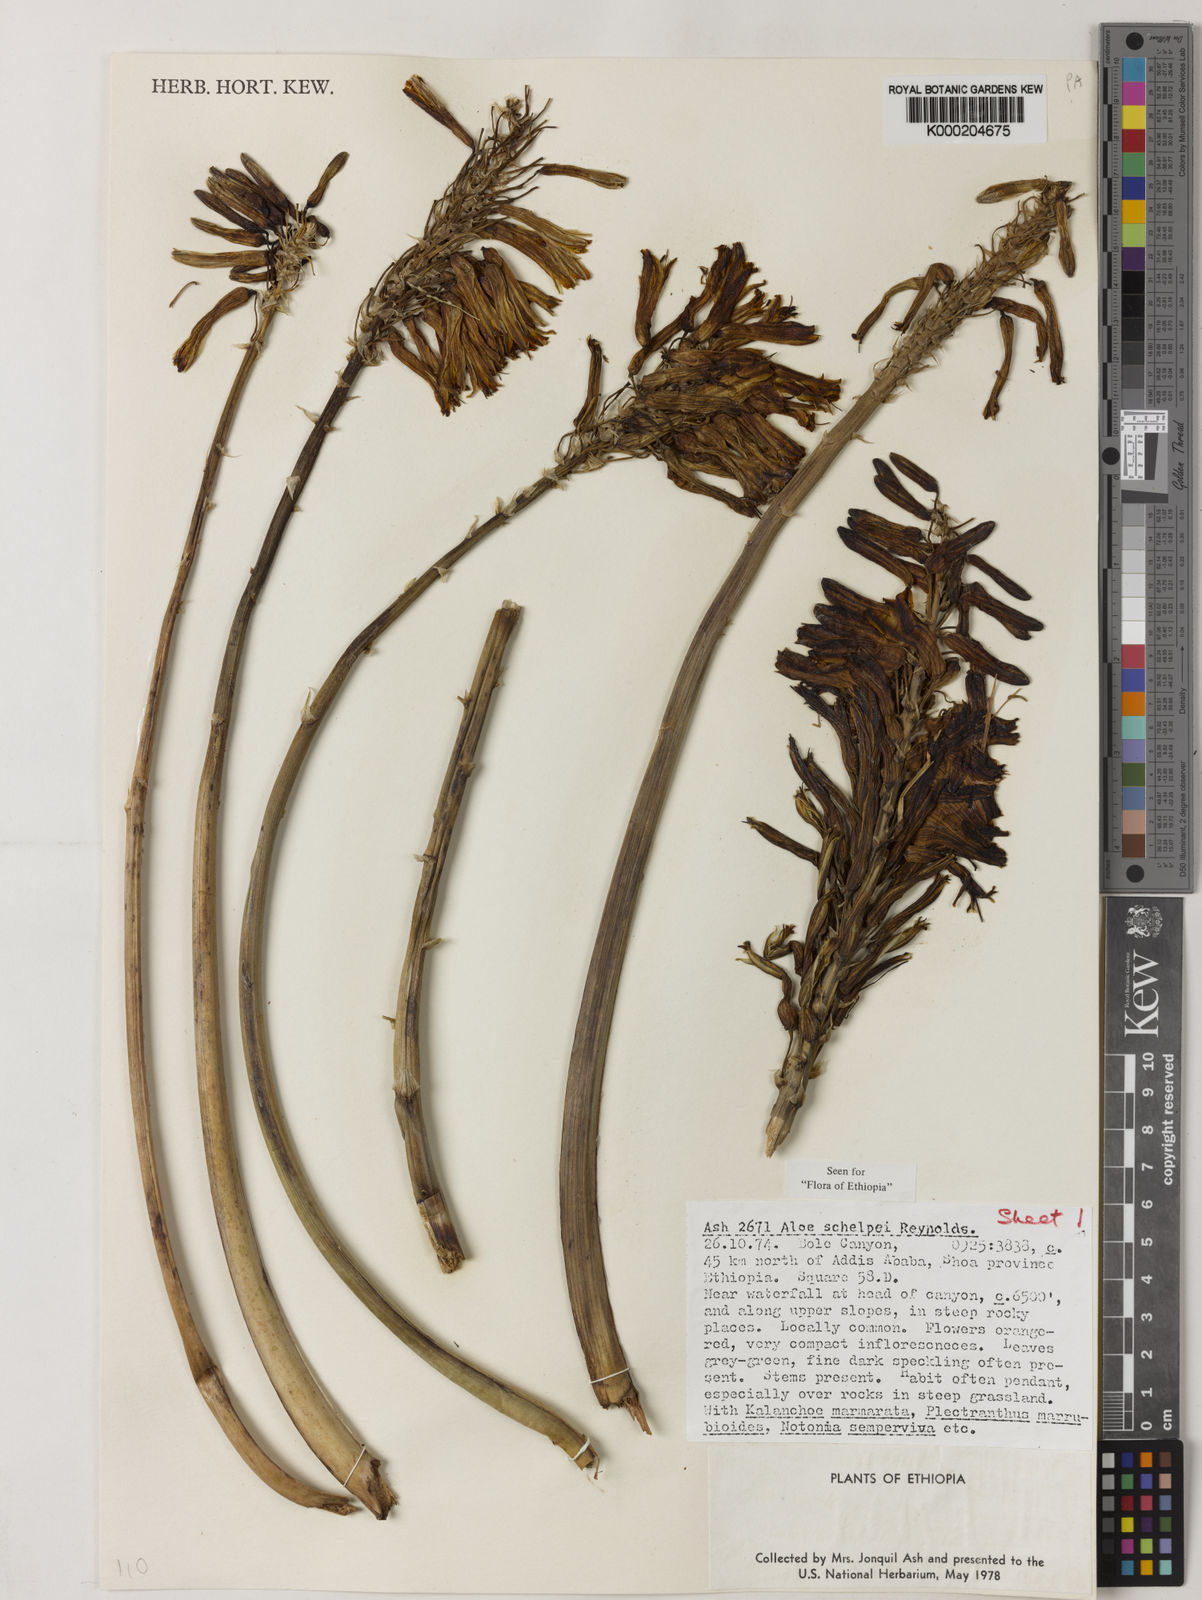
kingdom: Plantae
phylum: Tracheophyta
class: Liliopsida
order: Asparagales
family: Asphodelaceae
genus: Aloe
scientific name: Aloe schelpei
